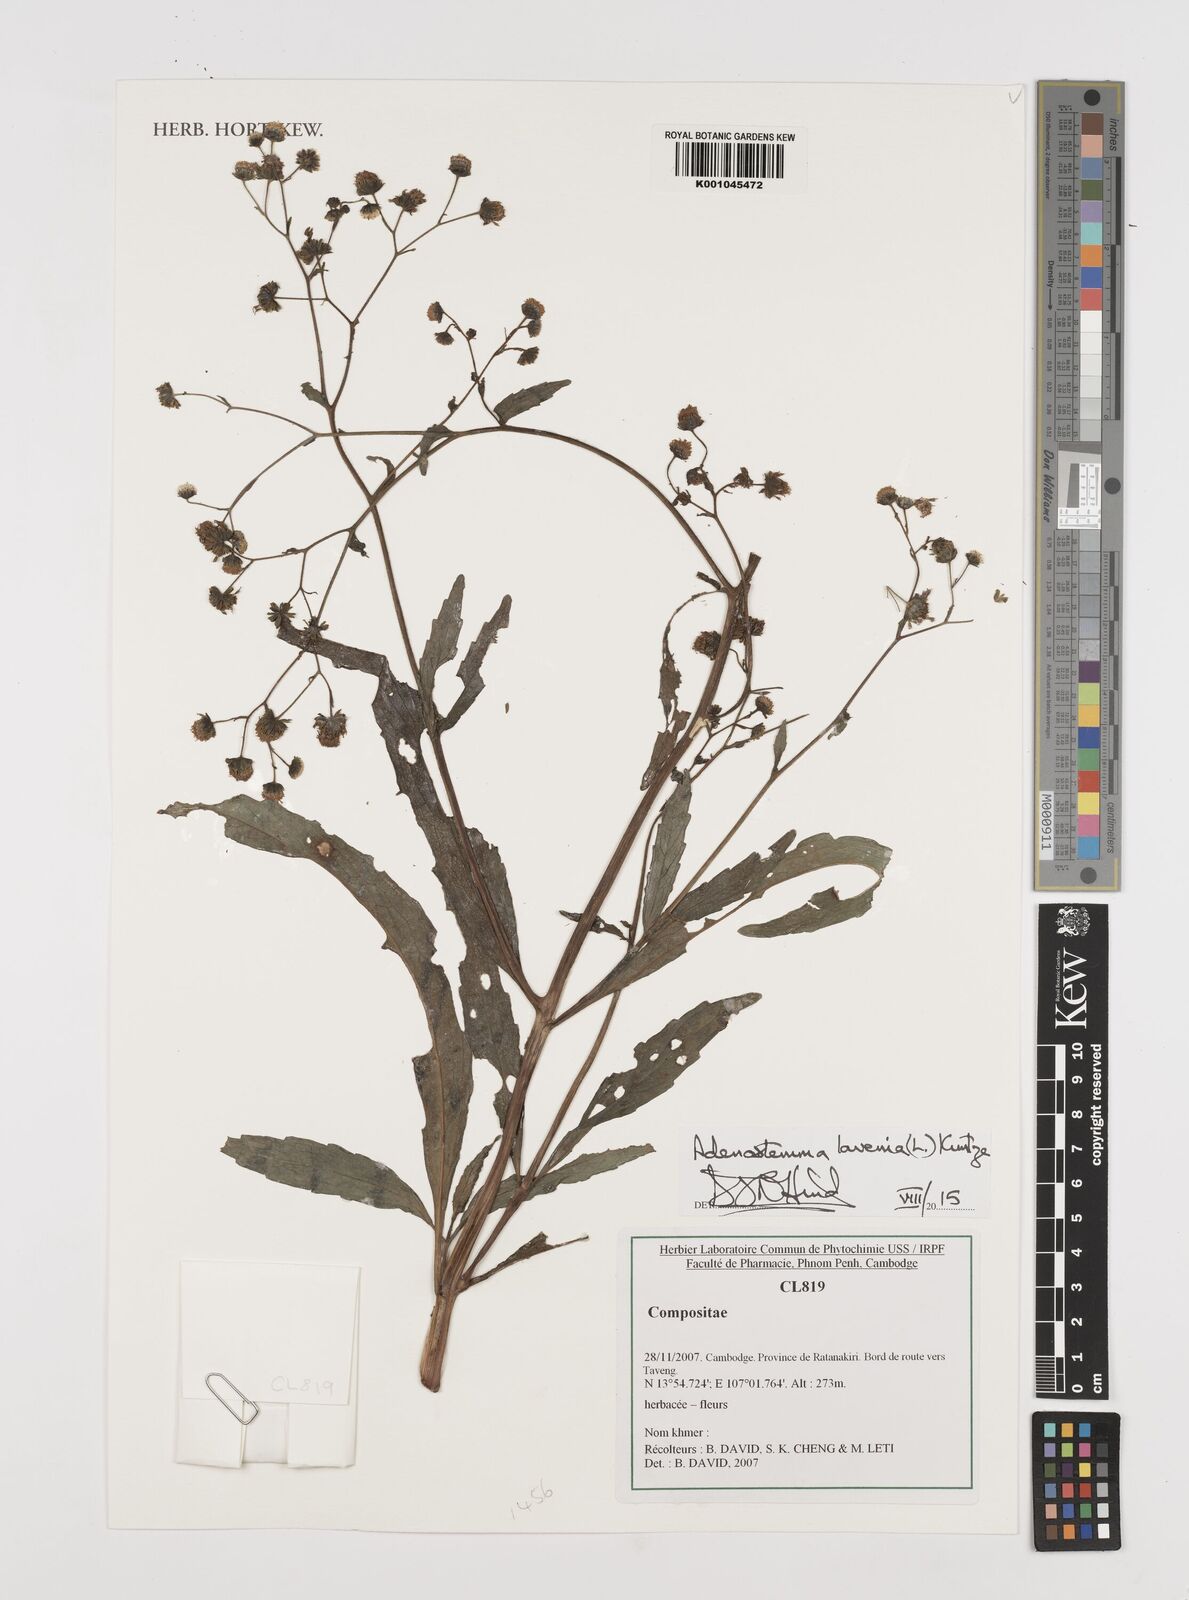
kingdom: Plantae
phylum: Tracheophyta
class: Magnoliopsida
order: Asterales
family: Asteraceae
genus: Adenostemma
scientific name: Adenostemma lavenia
